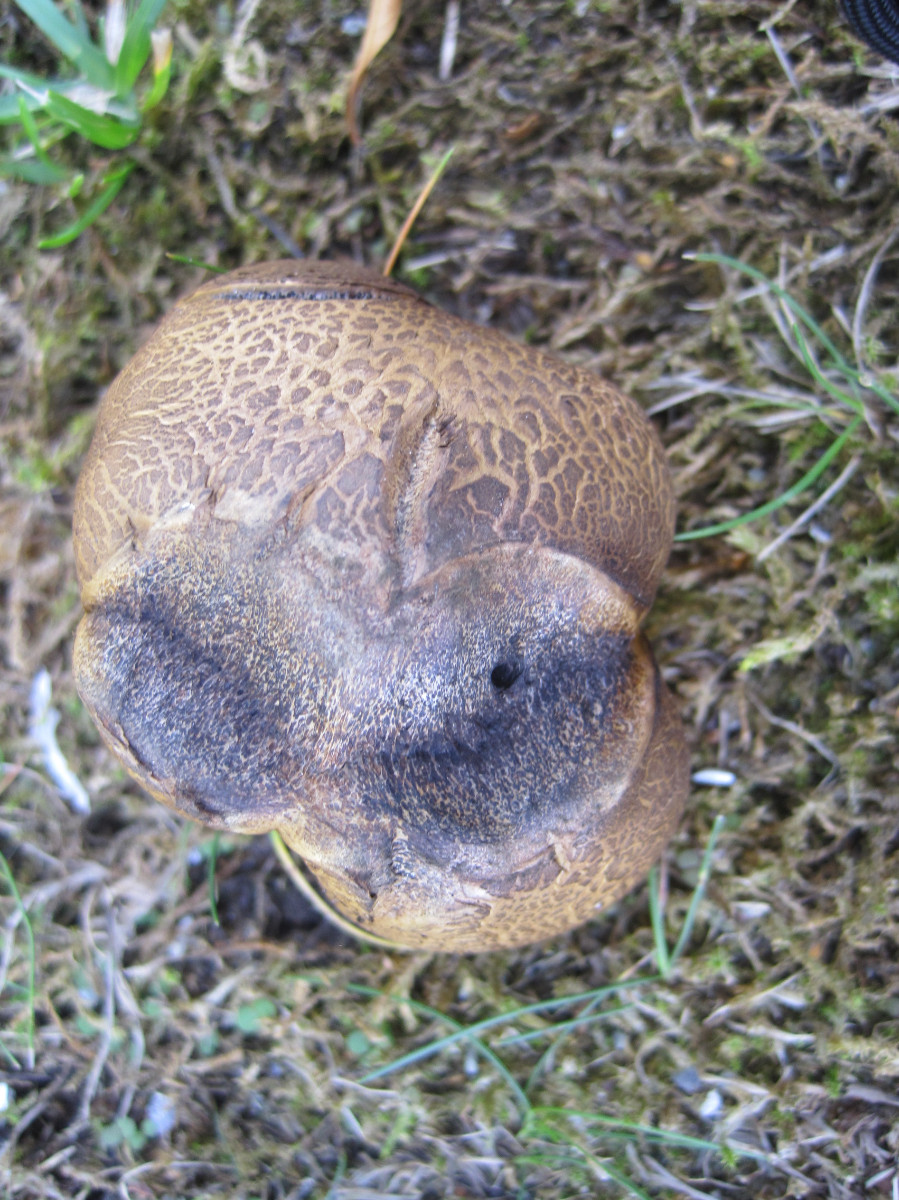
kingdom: Fungi
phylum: Basidiomycota
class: Agaricomycetes
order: Boletales
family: Sclerodermataceae
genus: Scleroderma
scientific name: Scleroderma verrucosum
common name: stilket bruskbold
